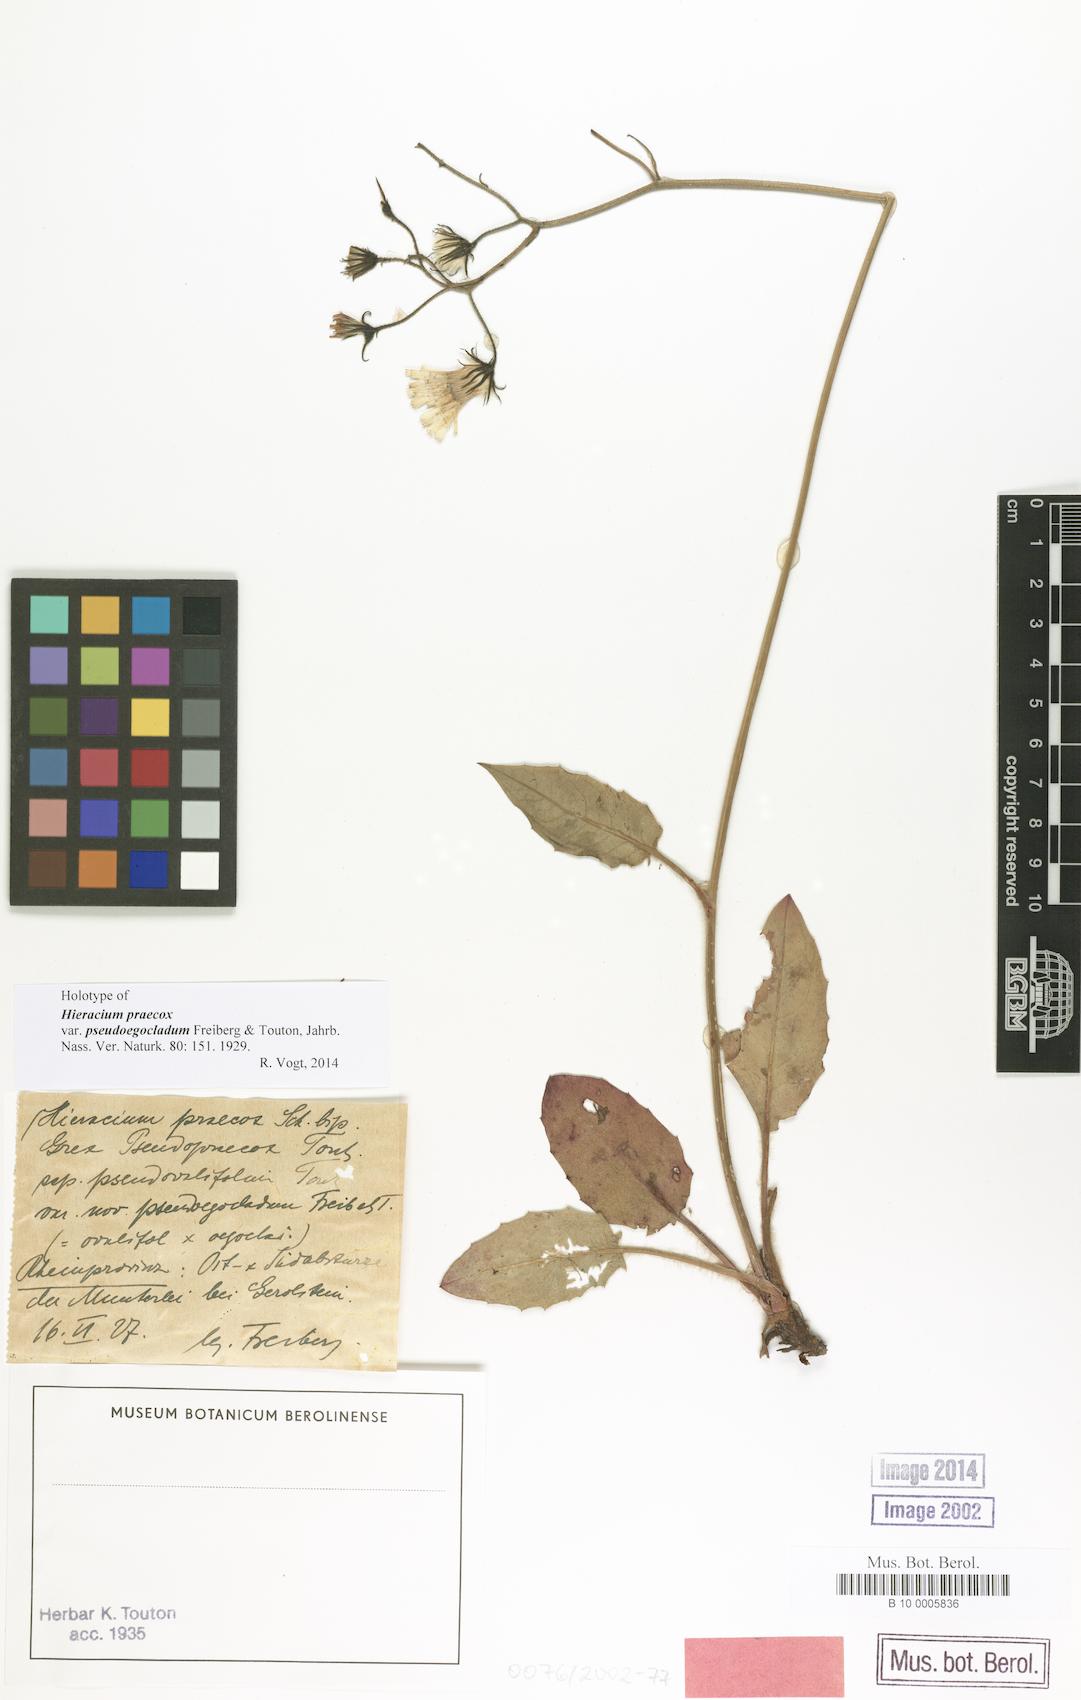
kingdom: Plantae
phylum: Tracheophyta
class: Magnoliopsida
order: Asterales
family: Asteraceae
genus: Hieracium
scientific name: Hieracium praecox
